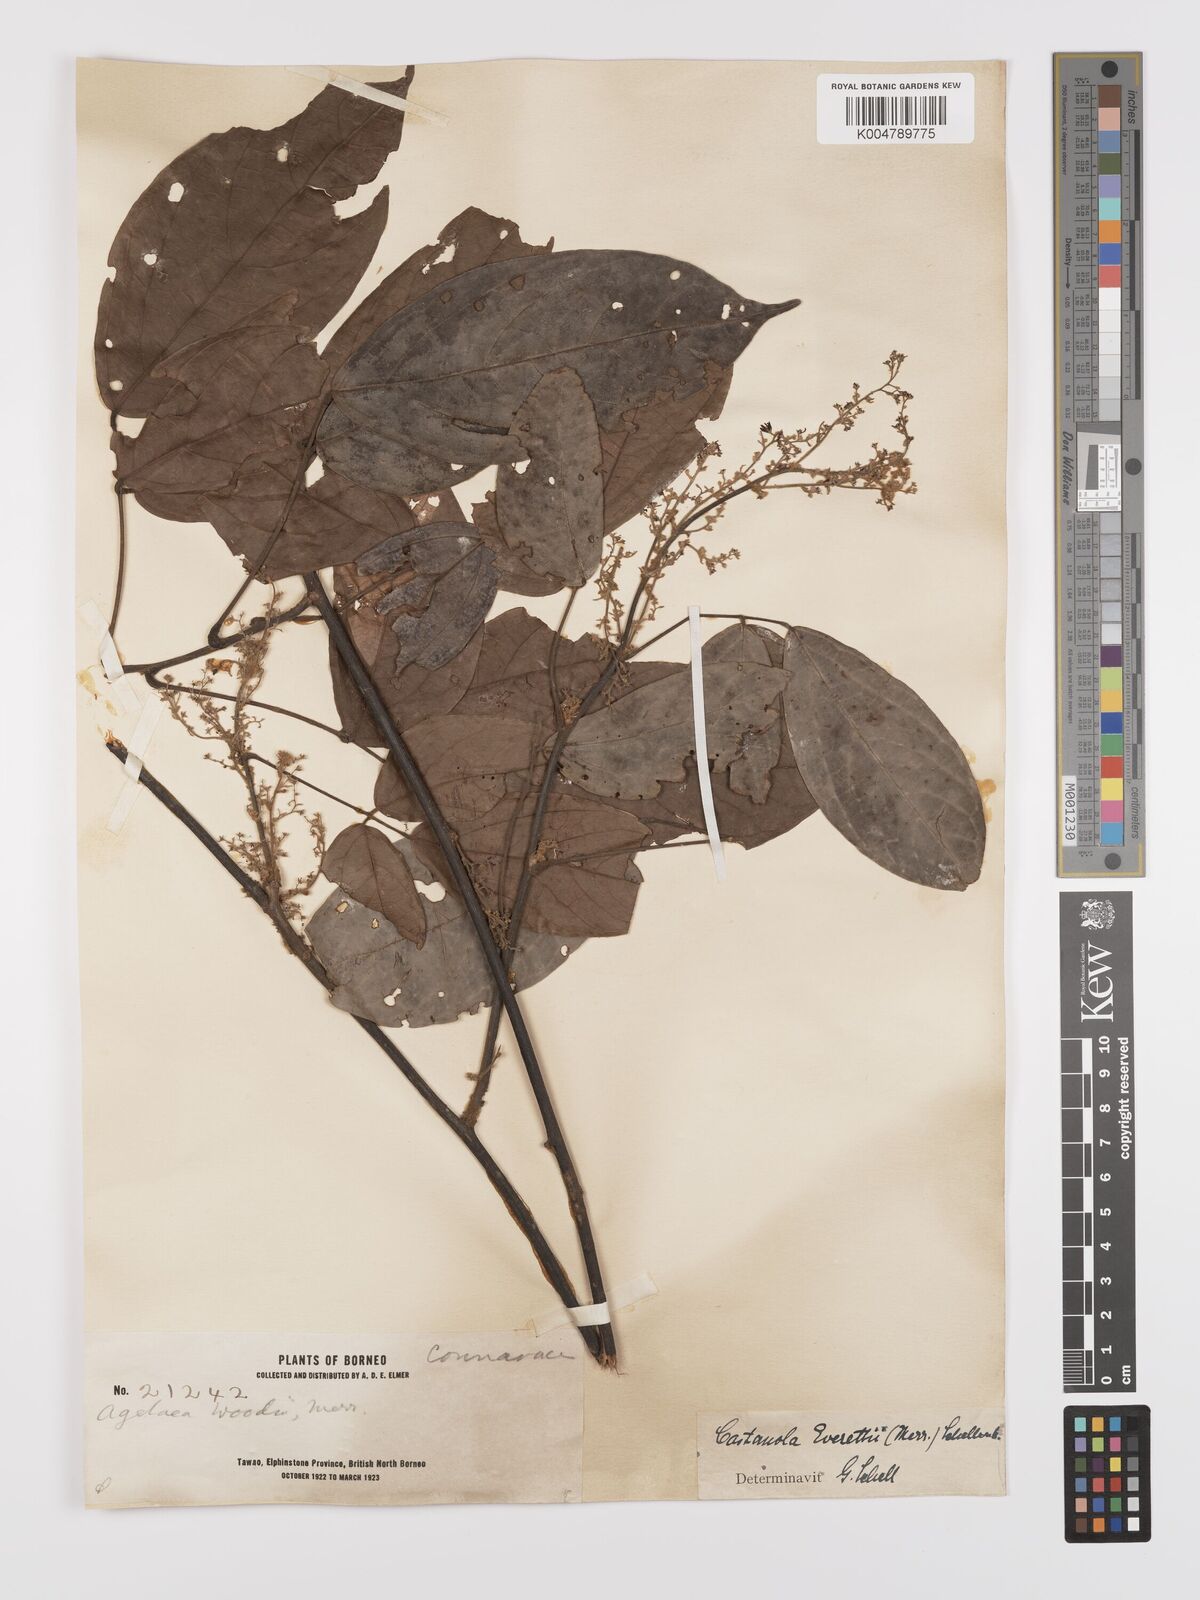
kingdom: Plantae
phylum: Tracheophyta
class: Magnoliopsida
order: Oxalidales
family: Connaraceae
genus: Agelaea
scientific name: Agelaea borneensis
